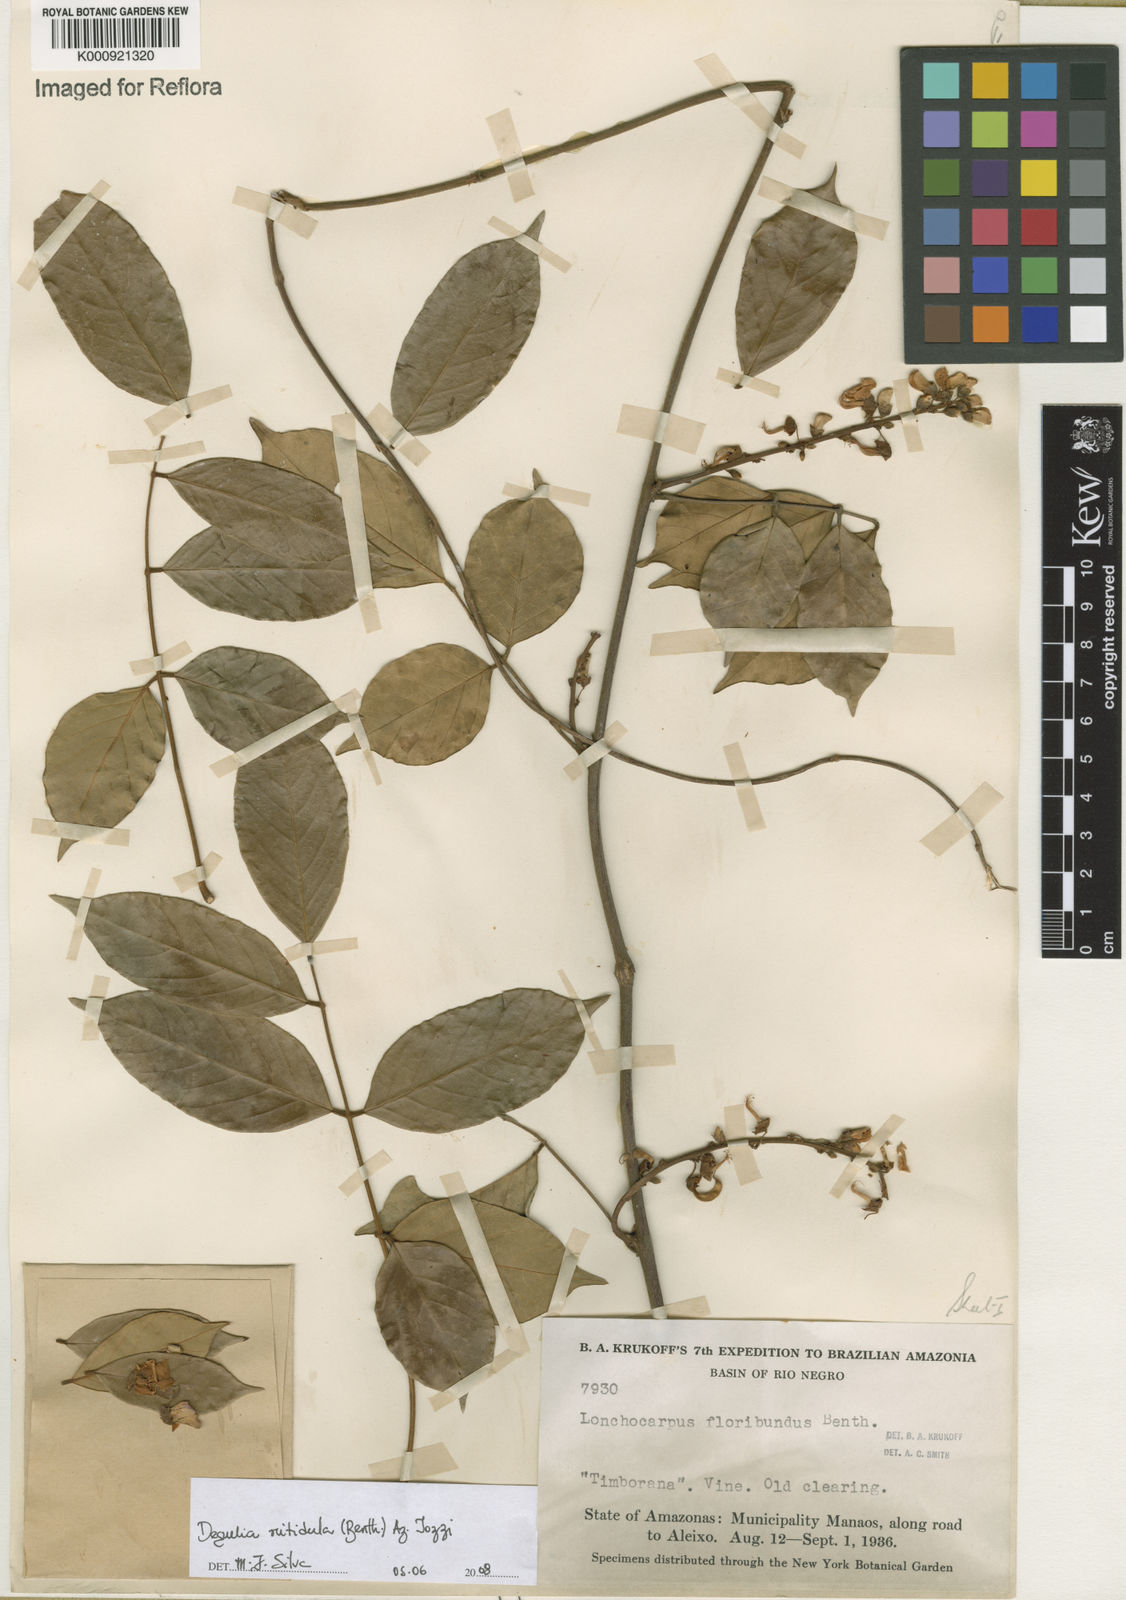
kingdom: Plantae
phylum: Tracheophyta
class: Magnoliopsida
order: Fabales
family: Fabaceae
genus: Deguelia
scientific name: Deguelia nitidula
